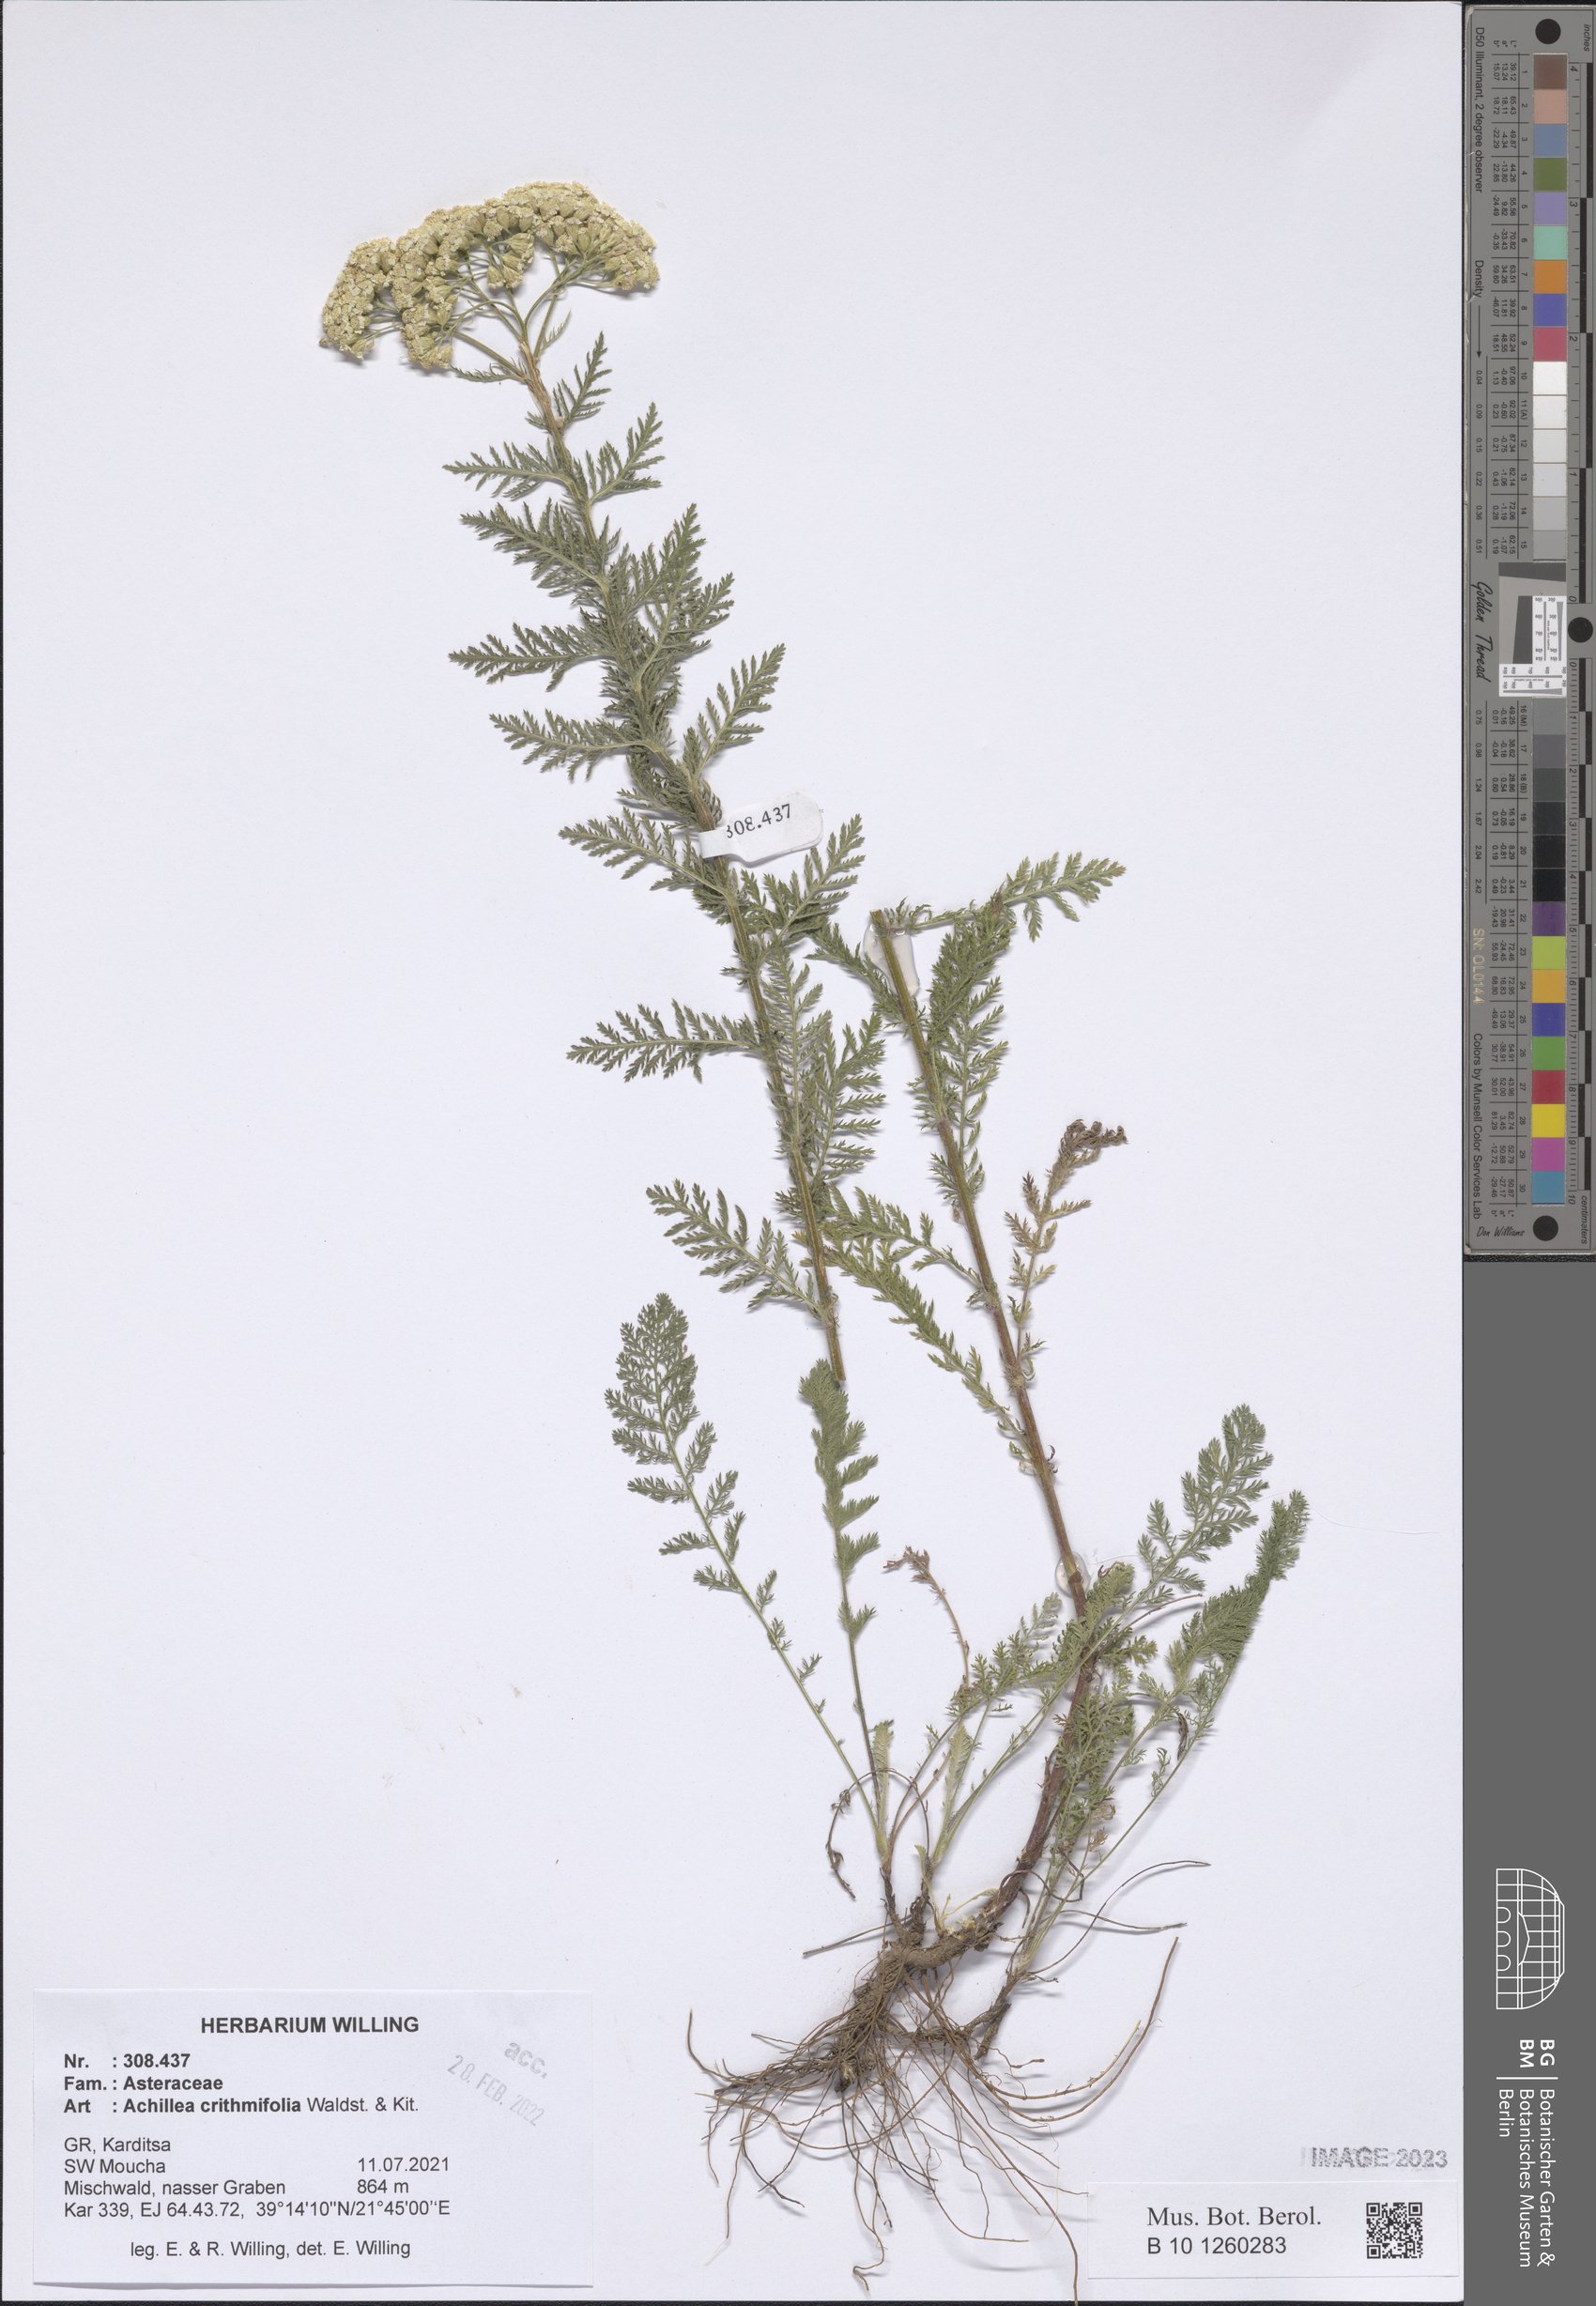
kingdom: Plantae
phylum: Tracheophyta
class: Magnoliopsida
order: Asterales
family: Asteraceae
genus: Achillea
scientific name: Achillea crithmifolia
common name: Yarrow
